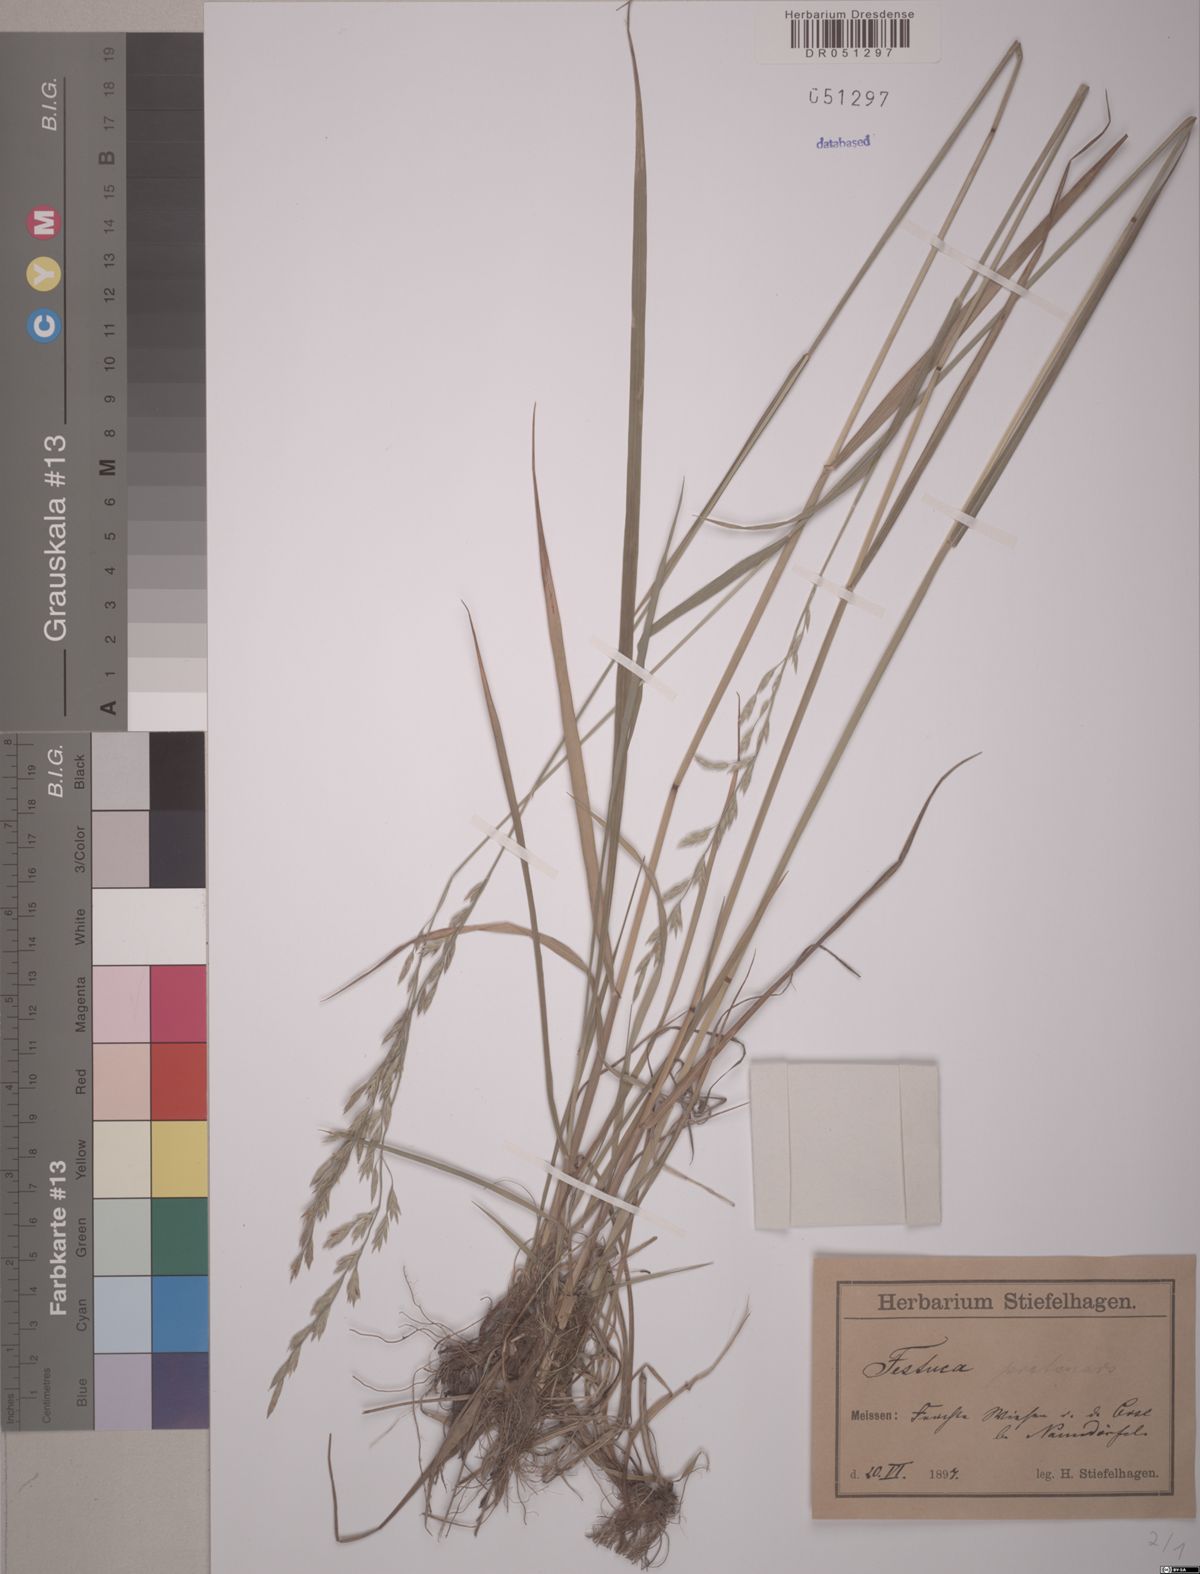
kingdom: Plantae
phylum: Tracheophyta
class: Liliopsida
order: Poales
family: Poaceae
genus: Lolium
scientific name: Lolium pratense
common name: Dover grass
